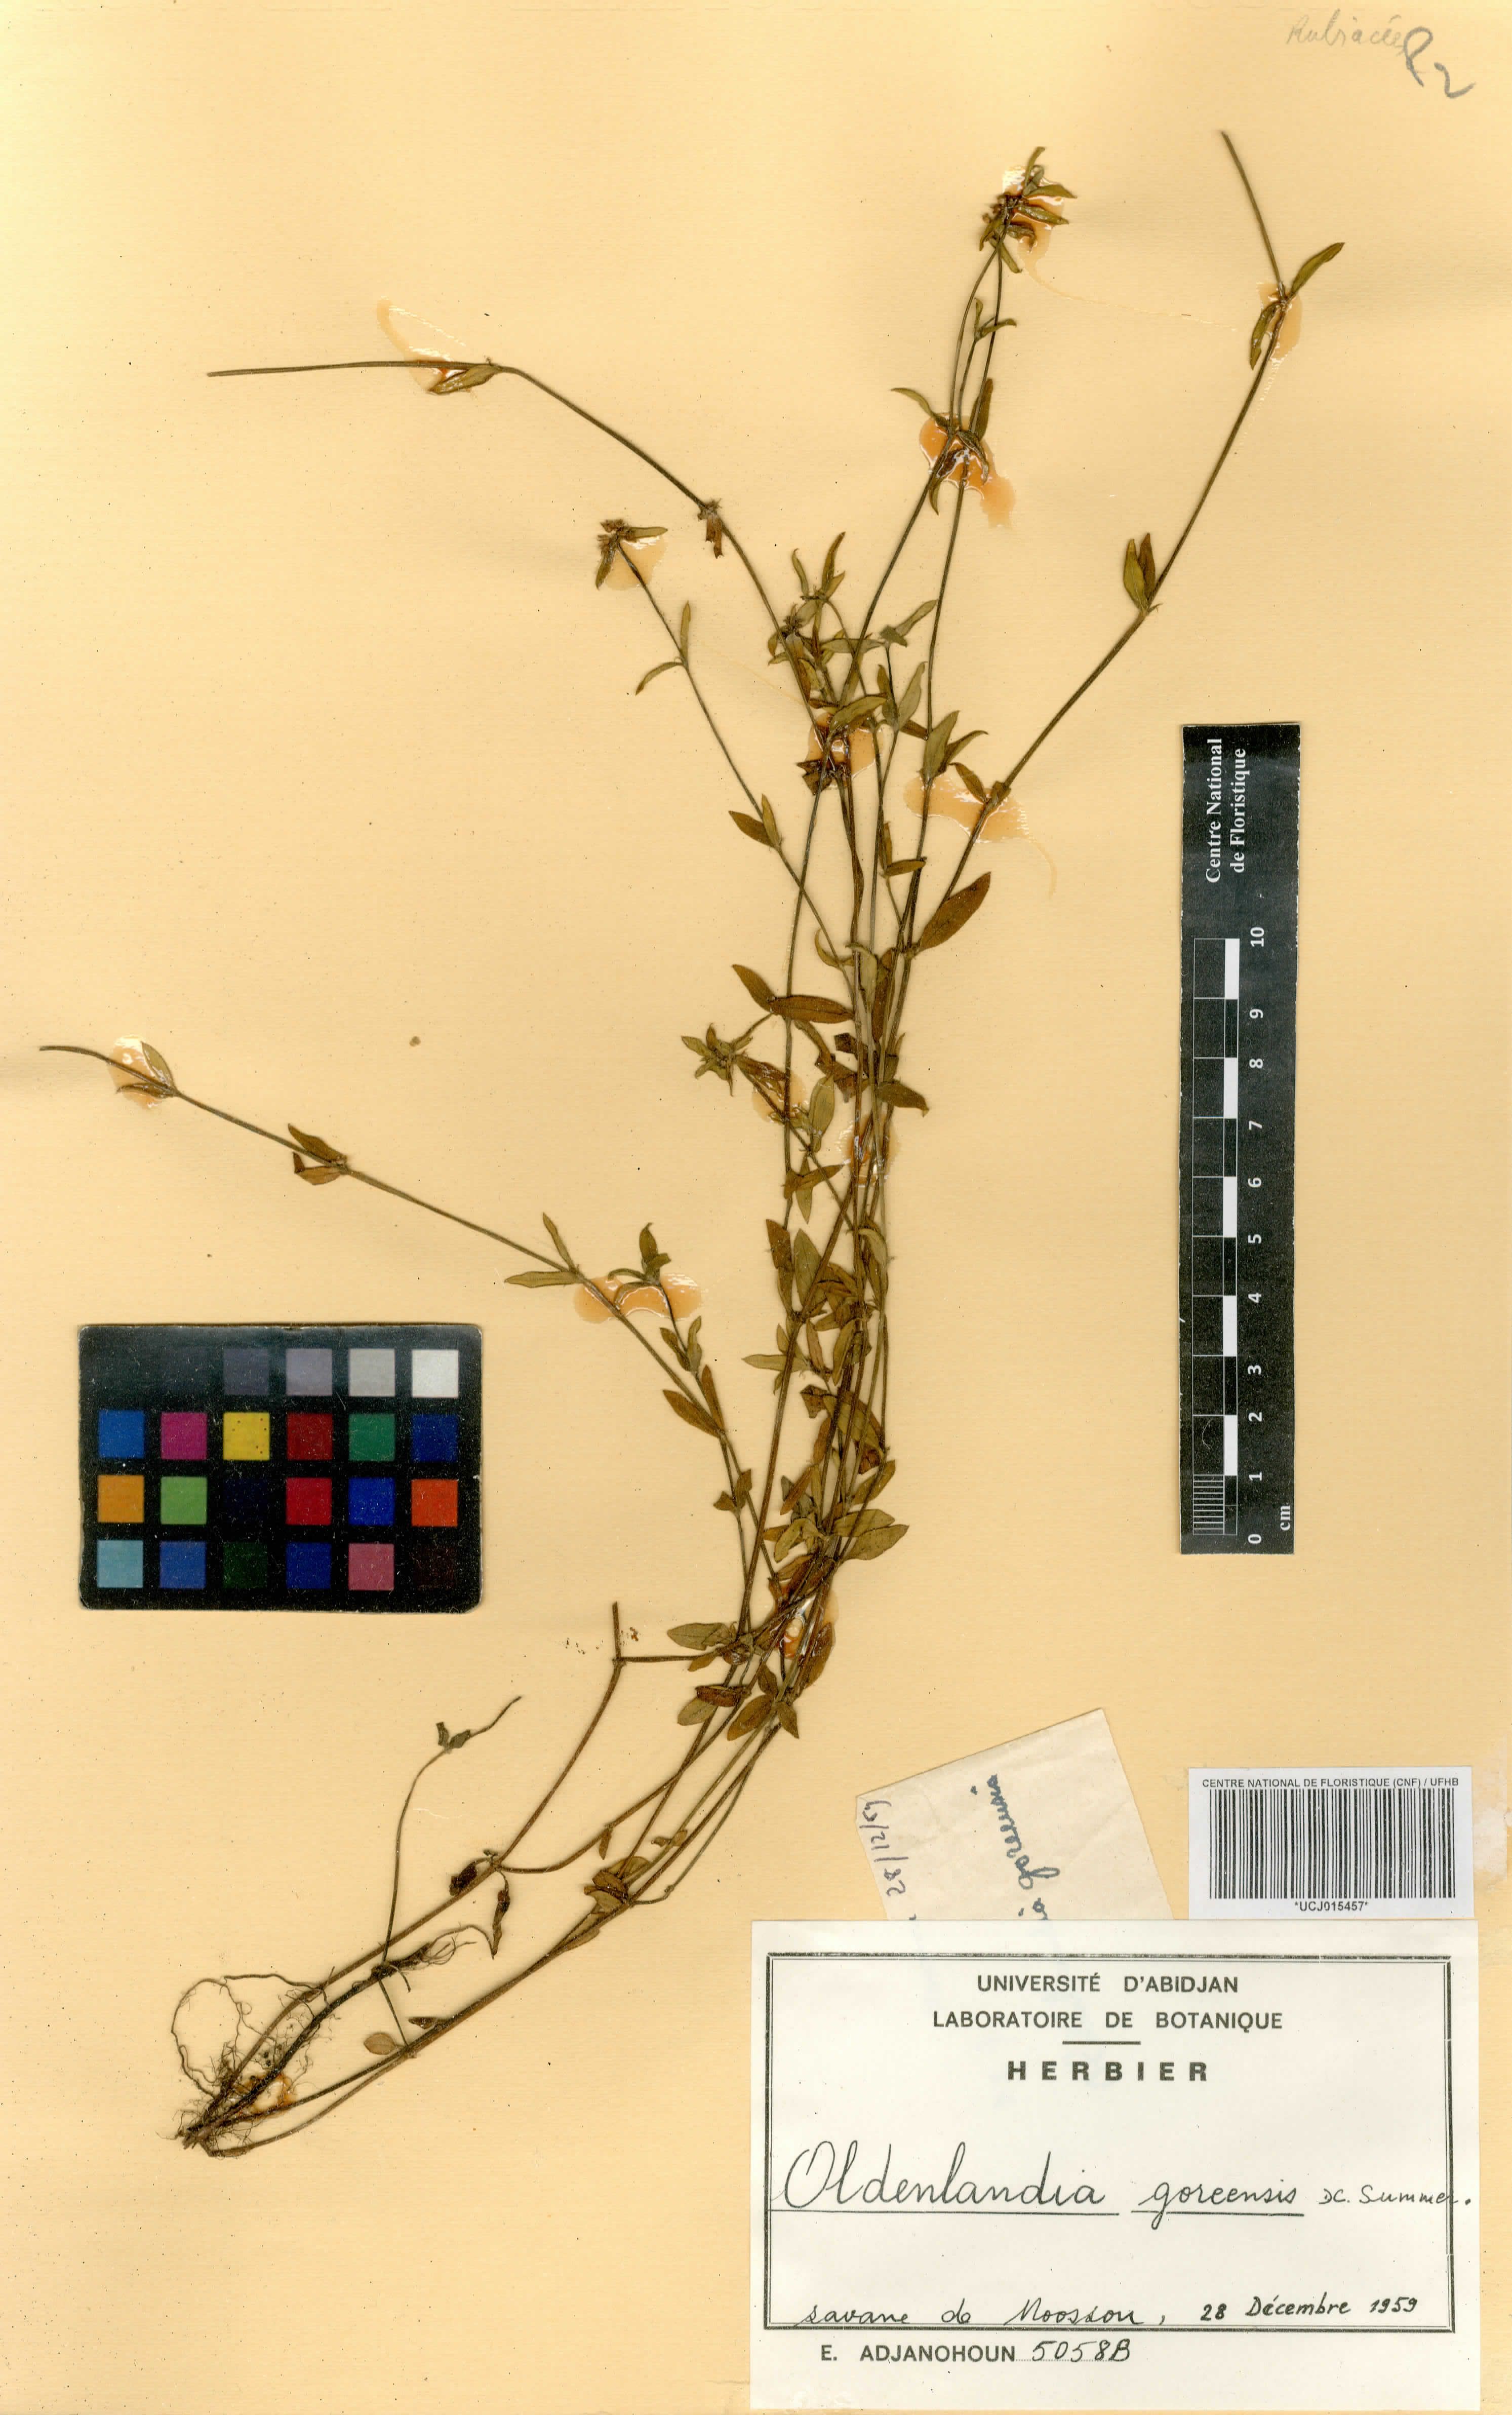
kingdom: Plantae
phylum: Tracheophyta
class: Magnoliopsida
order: Gentianales
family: Rubiaceae
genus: Edrastima
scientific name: Edrastima goreensis
